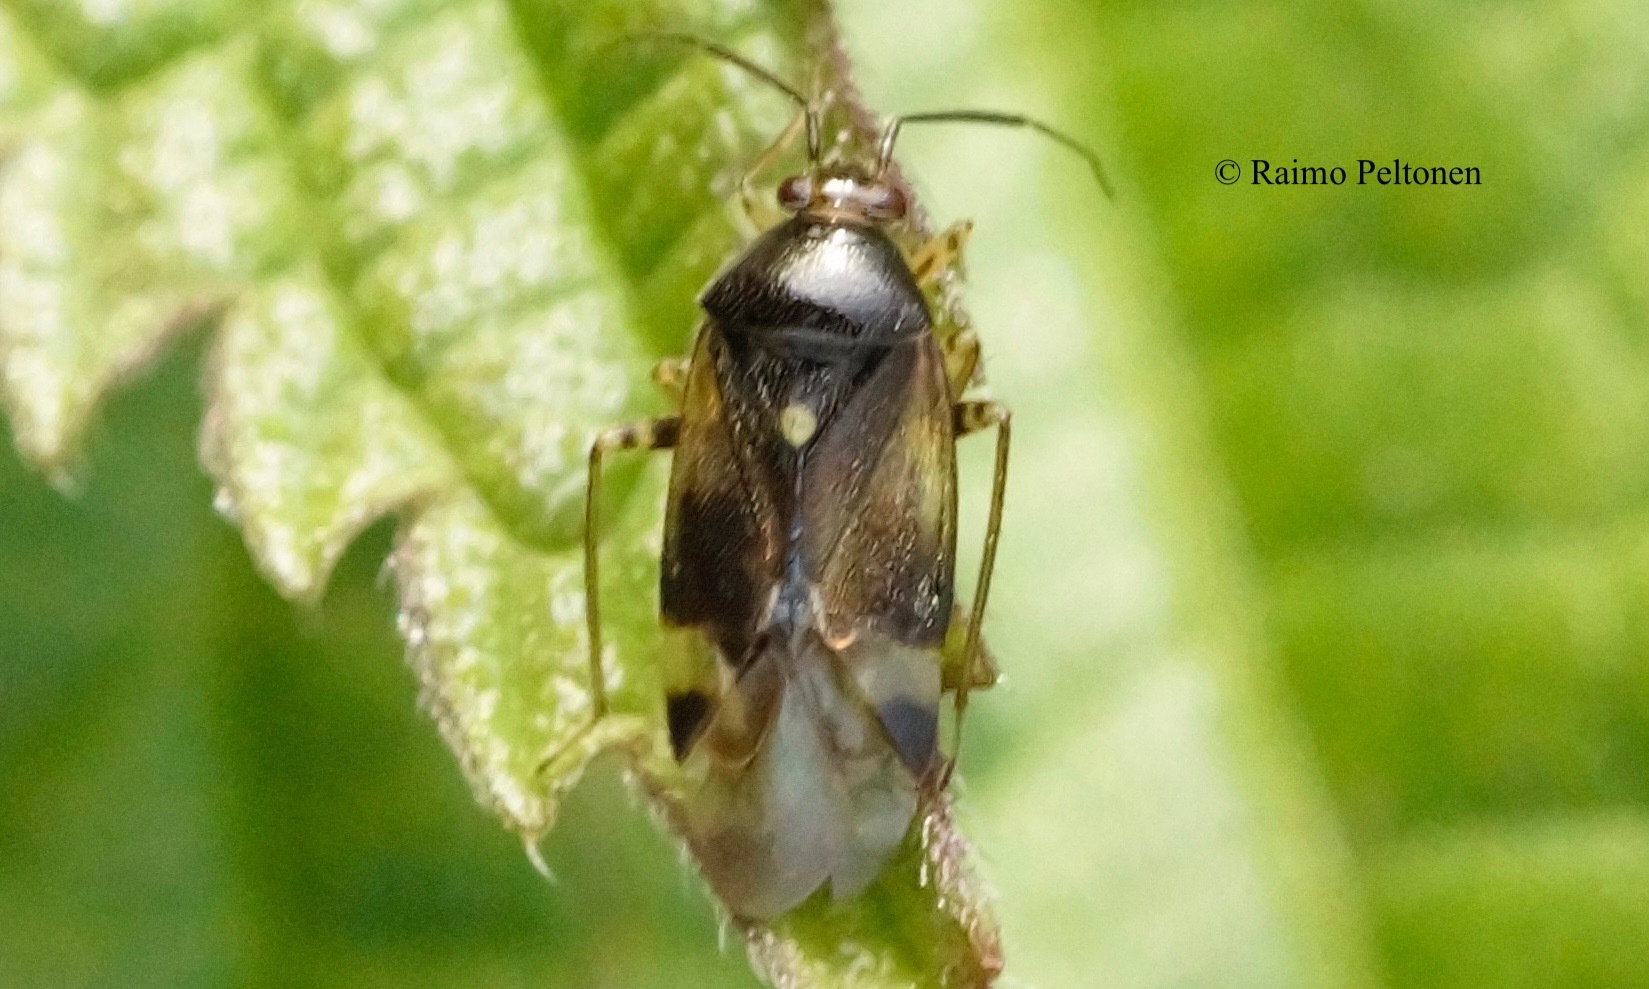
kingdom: Animalia
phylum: Arthropoda
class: Insecta
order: Hemiptera
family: Miridae
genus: Orthops
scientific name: Orthops basalis
